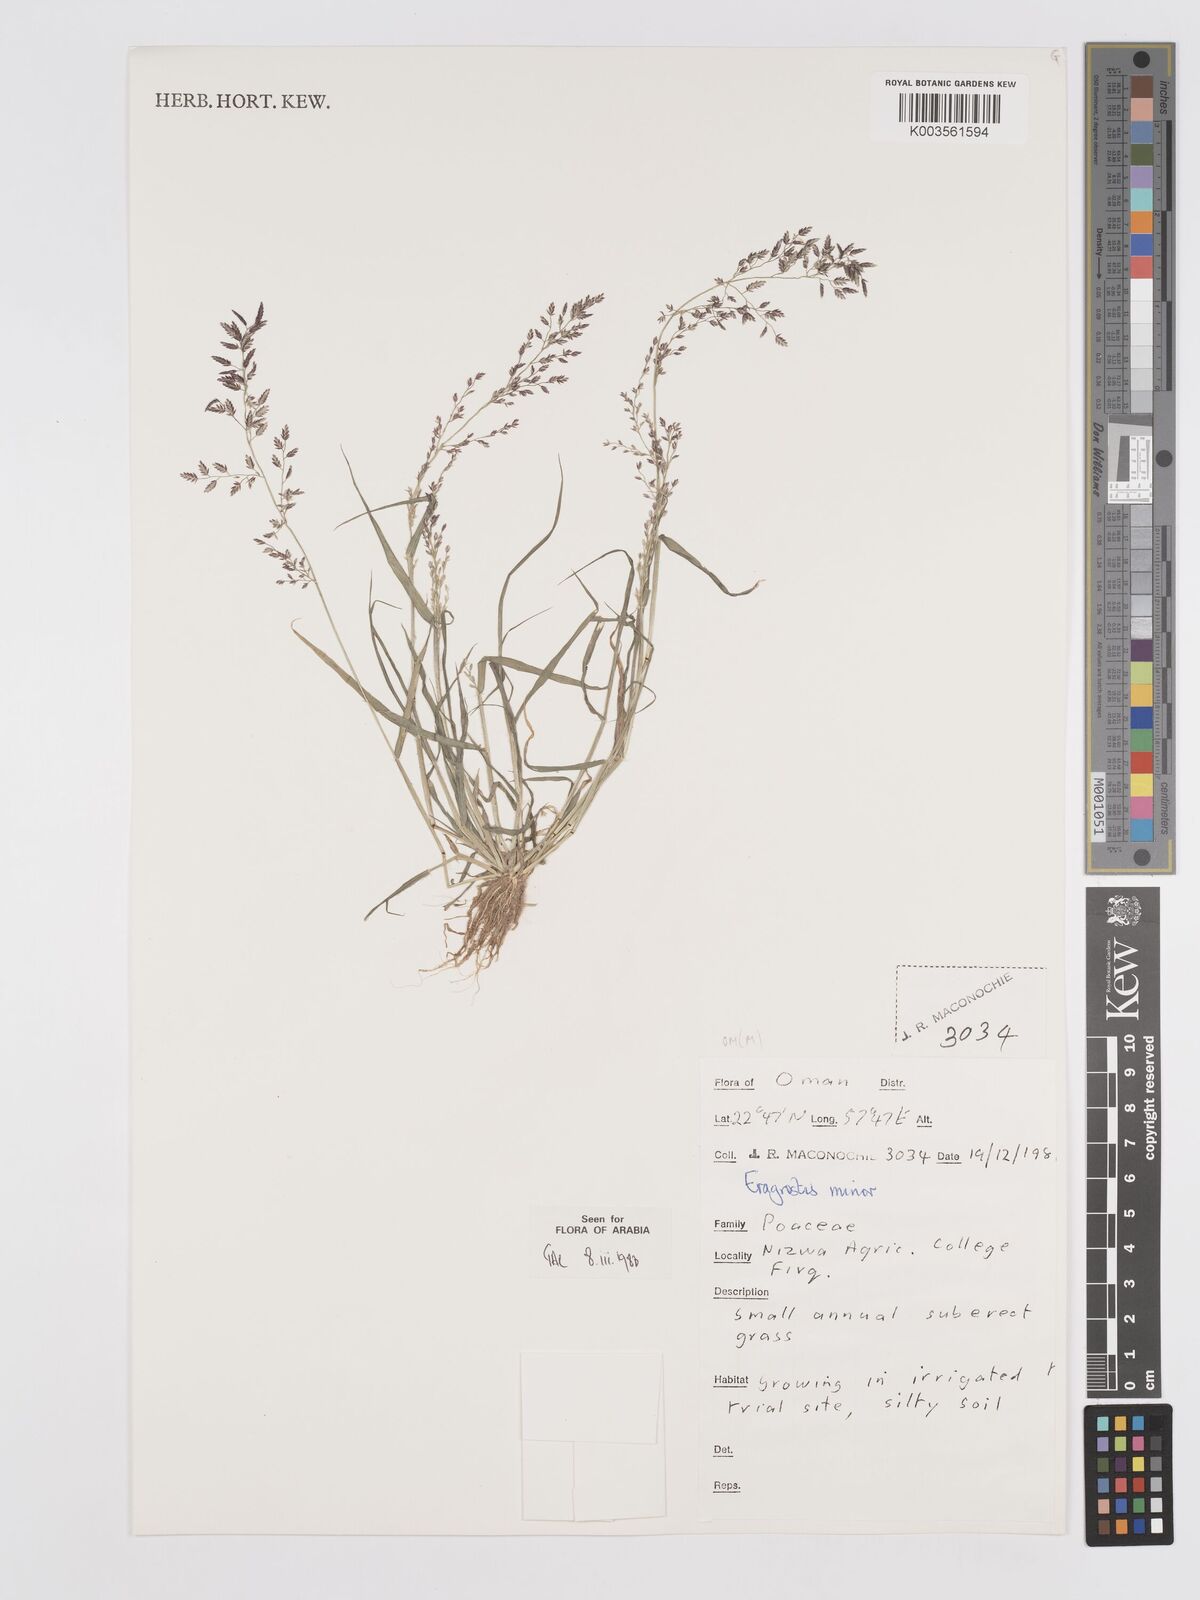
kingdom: Plantae
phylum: Tracheophyta
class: Liliopsida
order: Poales
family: Poaceae
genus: Eragrostis
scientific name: Eragrostis minor
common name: Small love-grass
